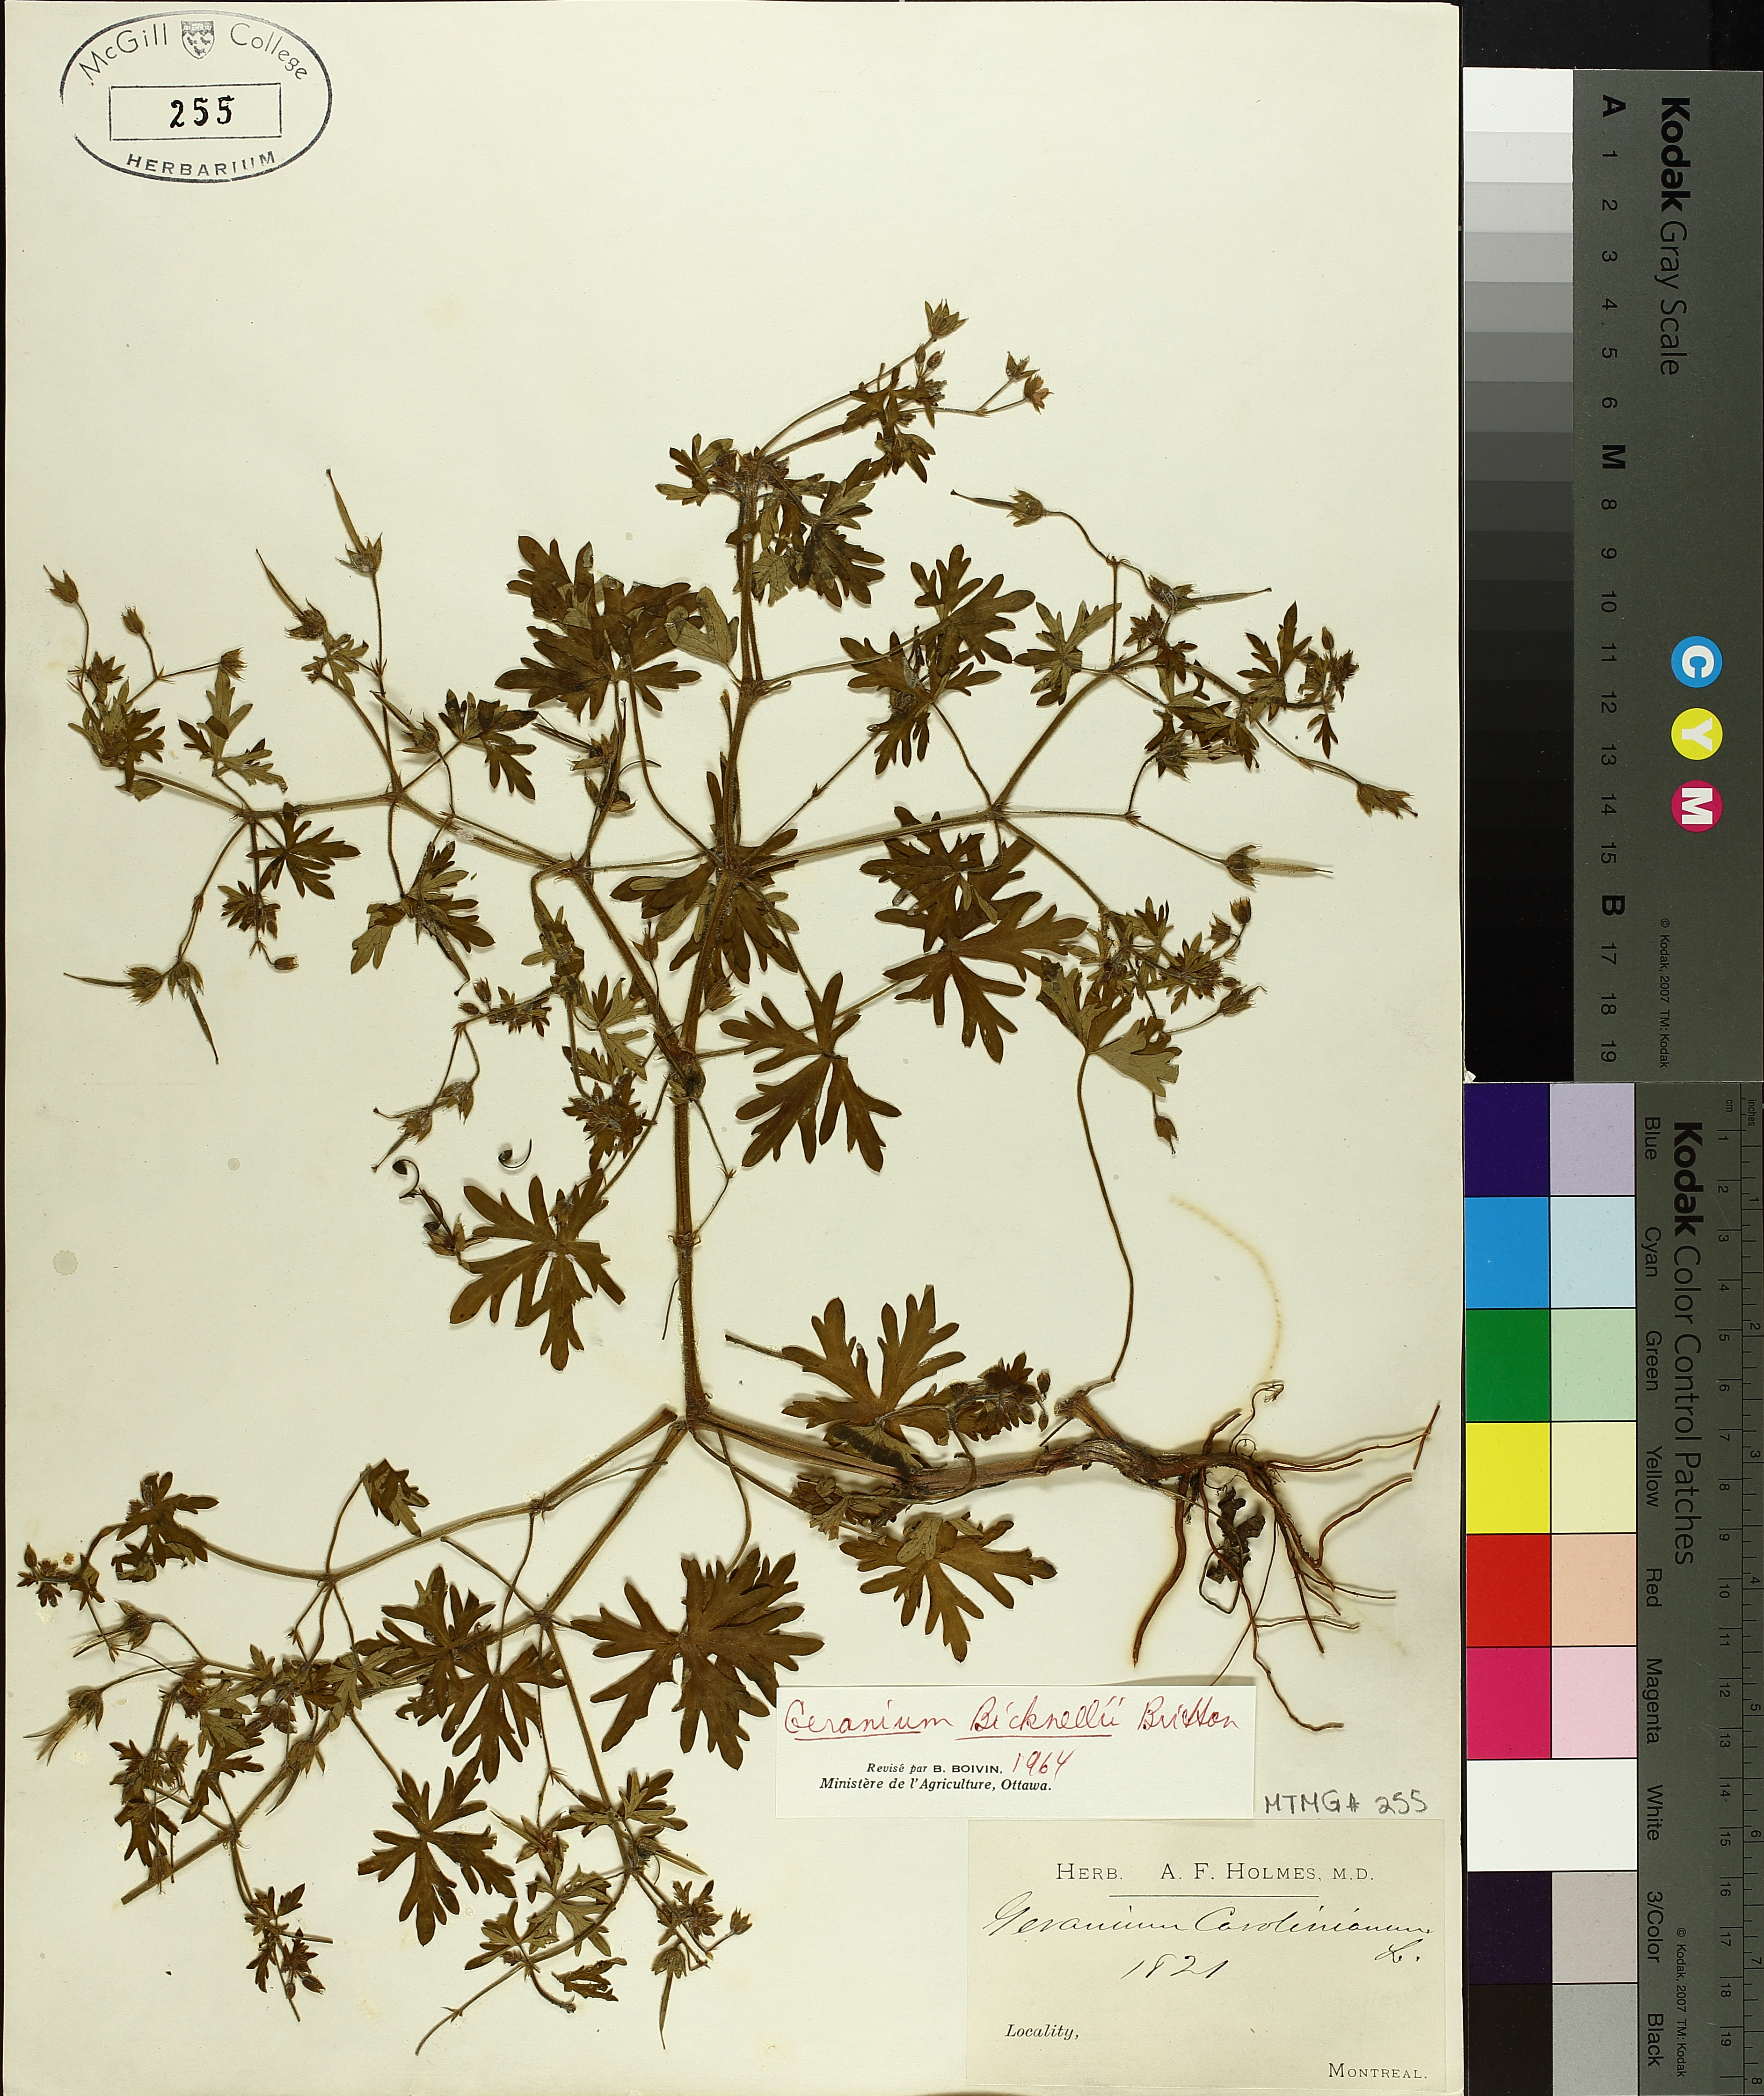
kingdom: Plantae
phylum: Tracheophyta
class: Magnoliopsida
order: Geraniales
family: Geraniaceae
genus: Geranium
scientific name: Geranium bicknellii
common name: Bicknell's cranesbill
